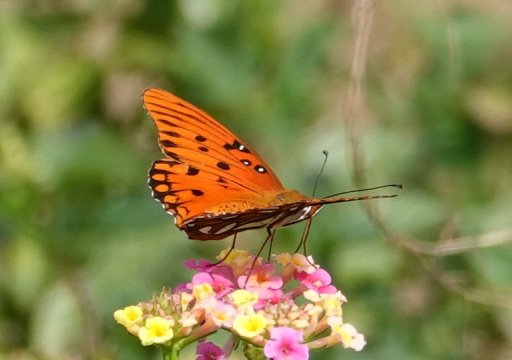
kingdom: Animalia
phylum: Arthropoda
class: Insecta
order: Lepidoptera
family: Nymphalidae
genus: Dione
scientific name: Dione vanillae
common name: Gulf Fritillary
